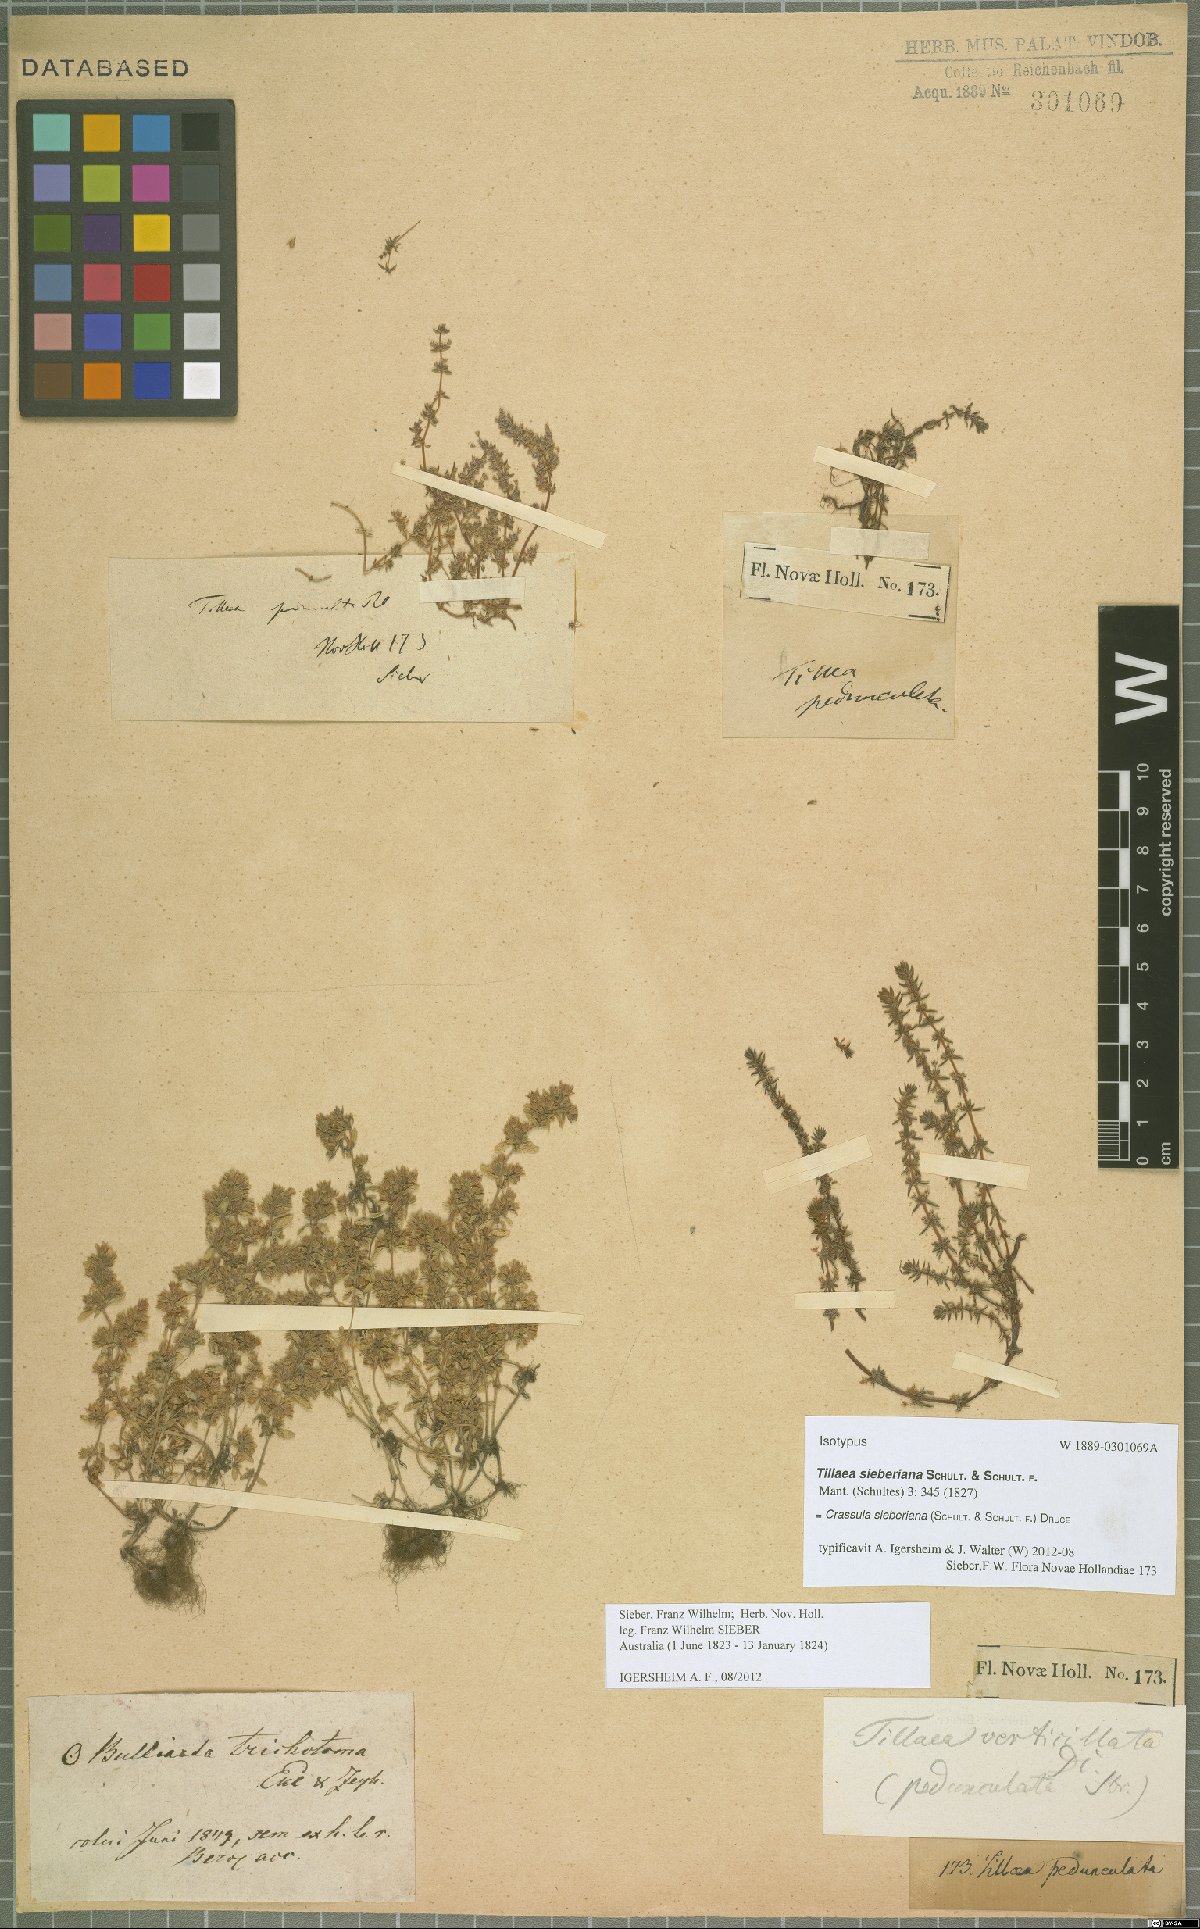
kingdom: Plantae
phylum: Tracheophyta
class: Magnoliopsida
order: Saxifragales
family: Crassulaceae
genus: Crassula
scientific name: Crassula sieberiana
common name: Siberian pygmyweed
